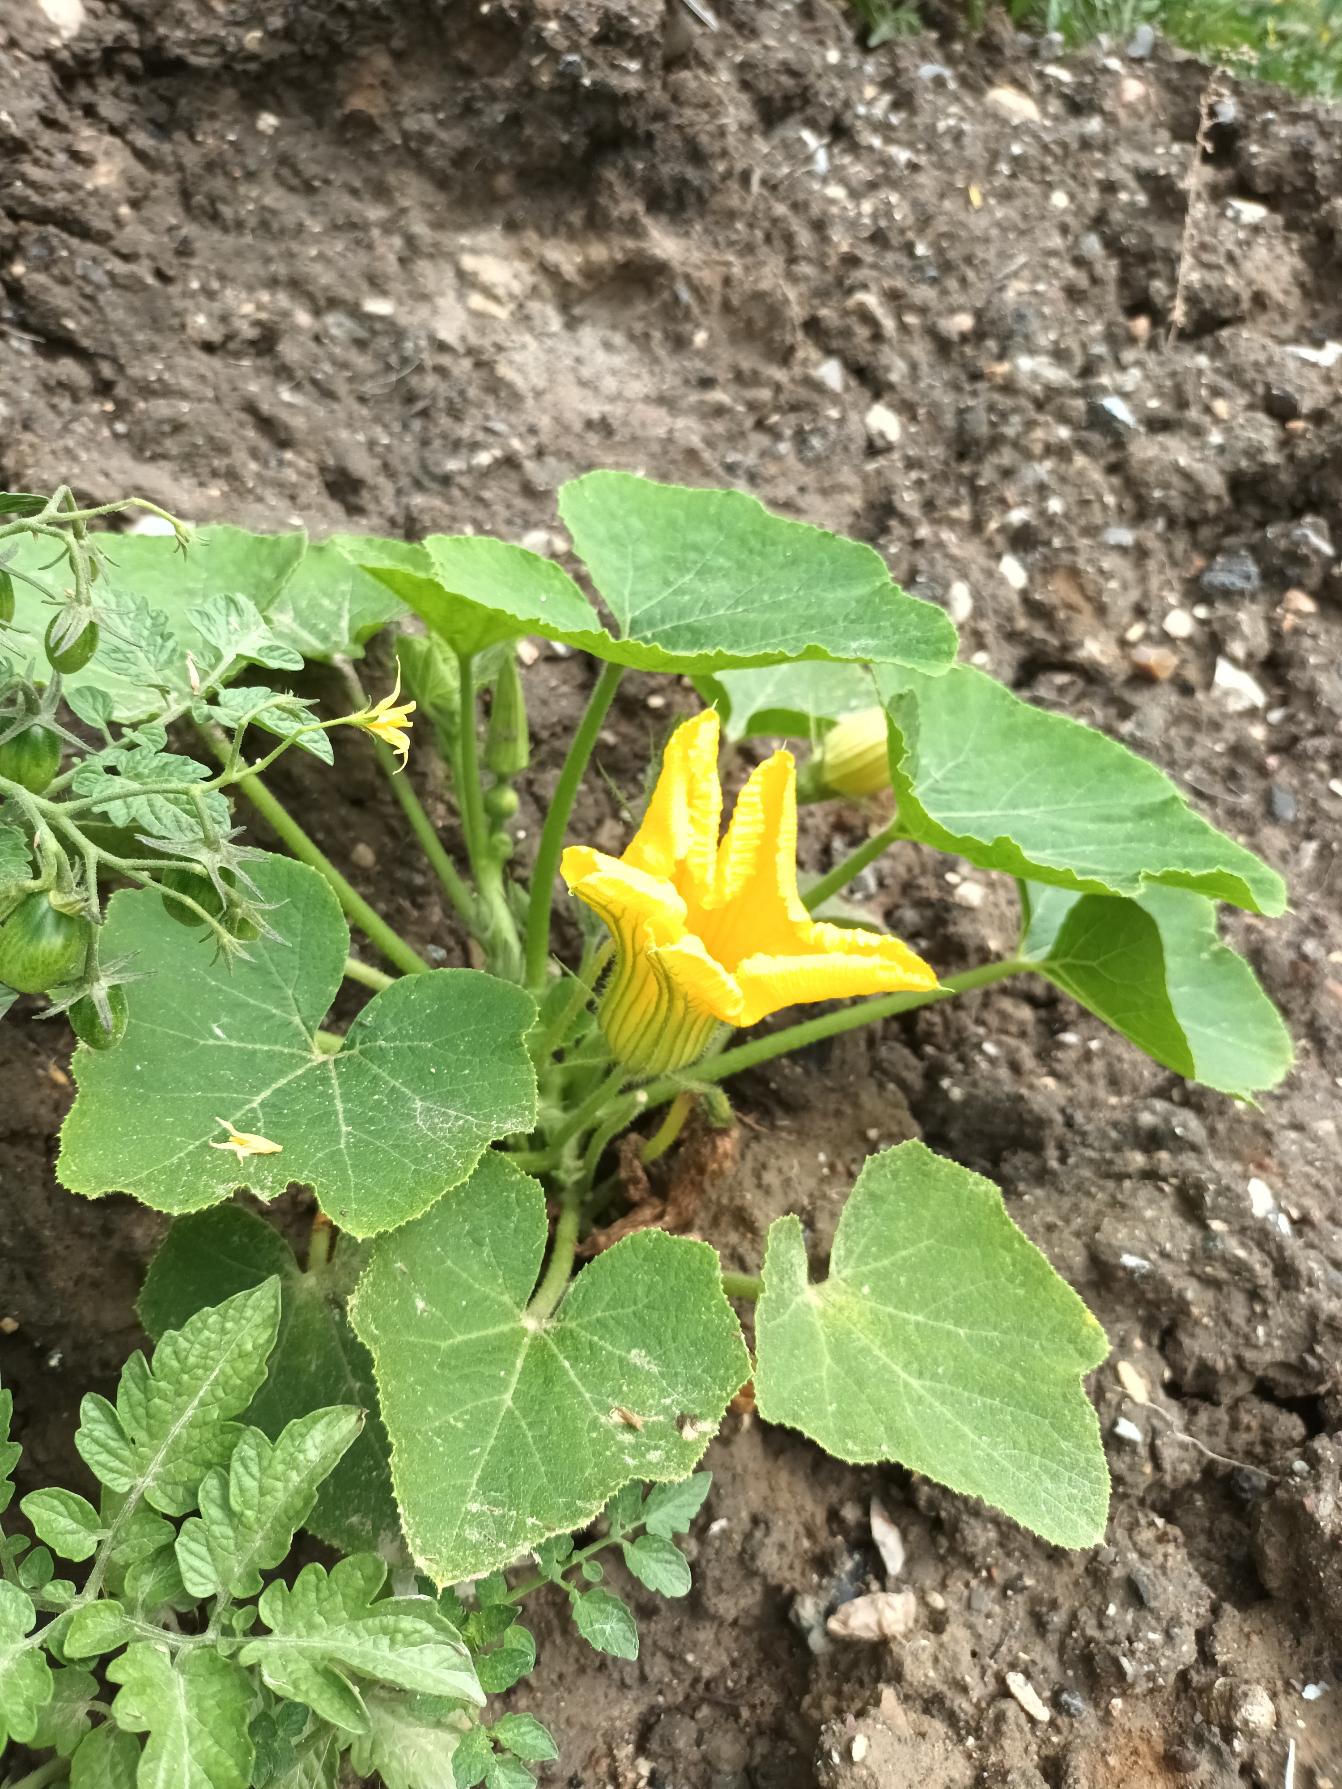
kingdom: Plantae
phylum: Tracheophyta
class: Magnoliopsida
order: Cucurbitales
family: Cucurbitaceae
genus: Cucurbita
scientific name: Cucurbita pepo
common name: Mandel-græskar
